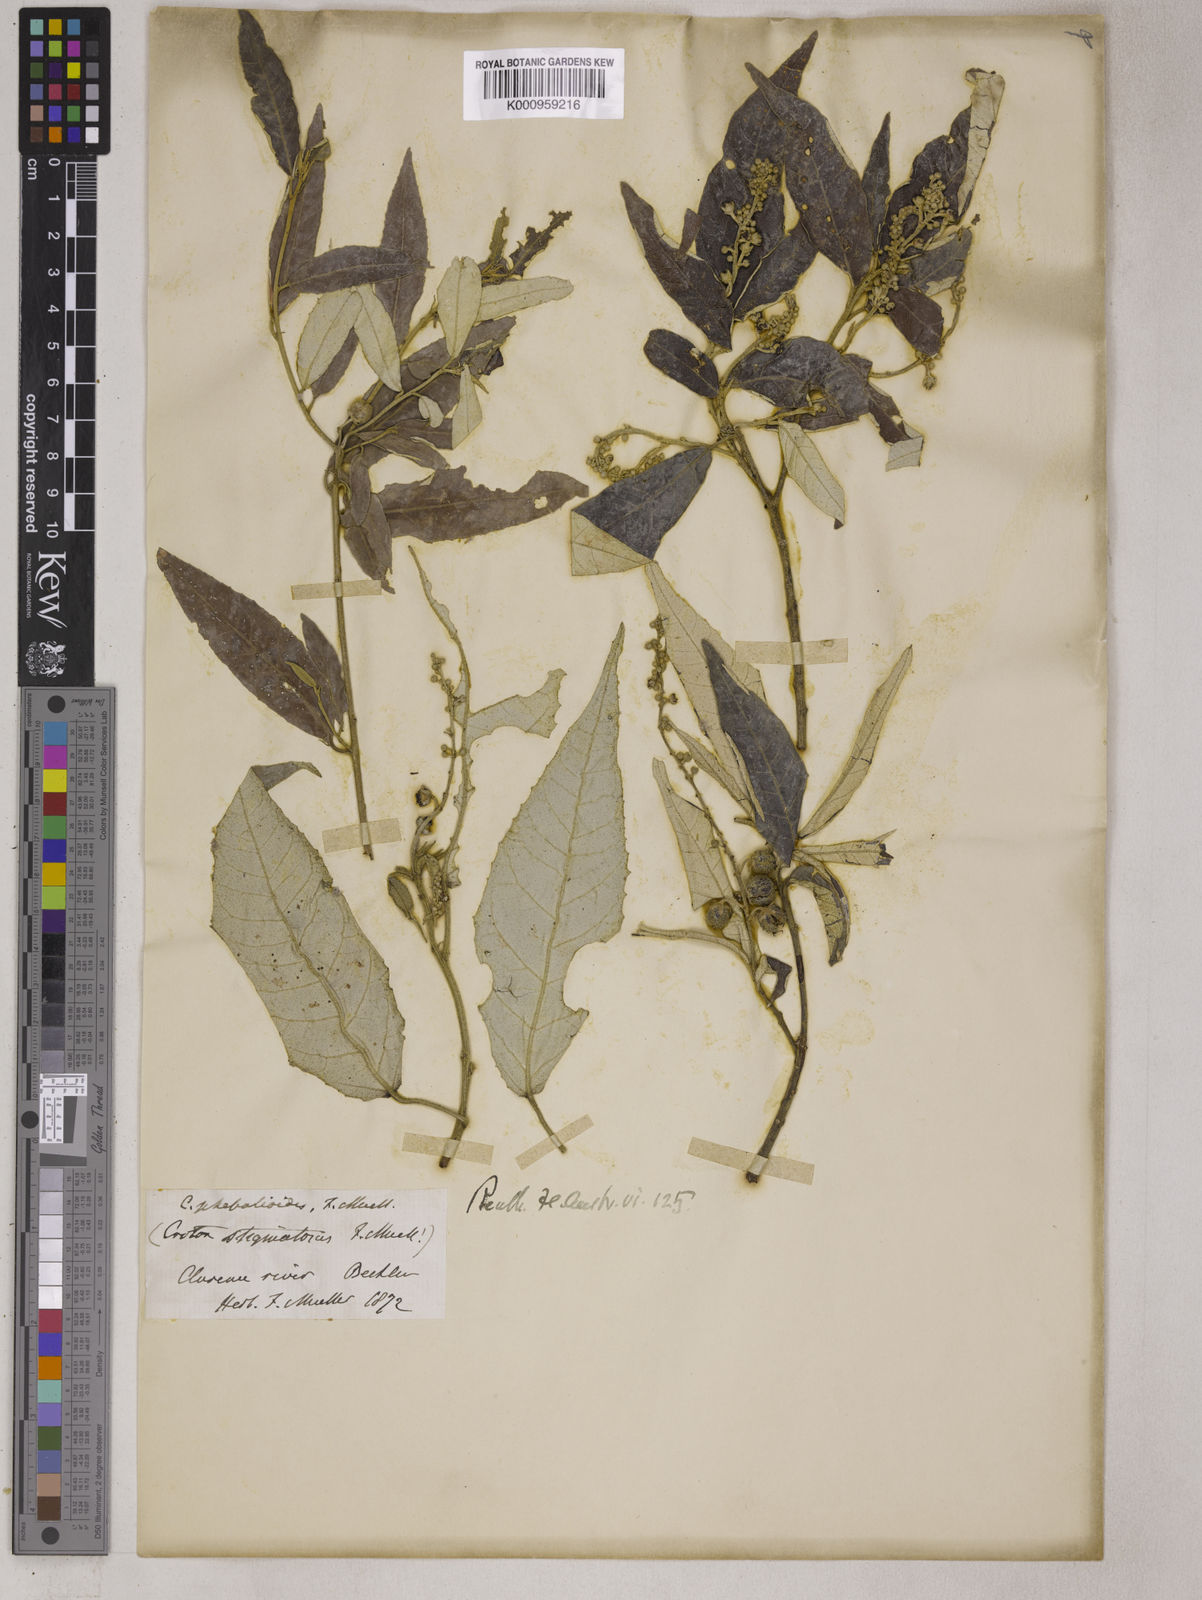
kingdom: Plantae
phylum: Tracheophyta
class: Magnoliopsida
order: Malpighiales
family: Euphorbiaceae
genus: Croton
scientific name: Croton stigmatosus
